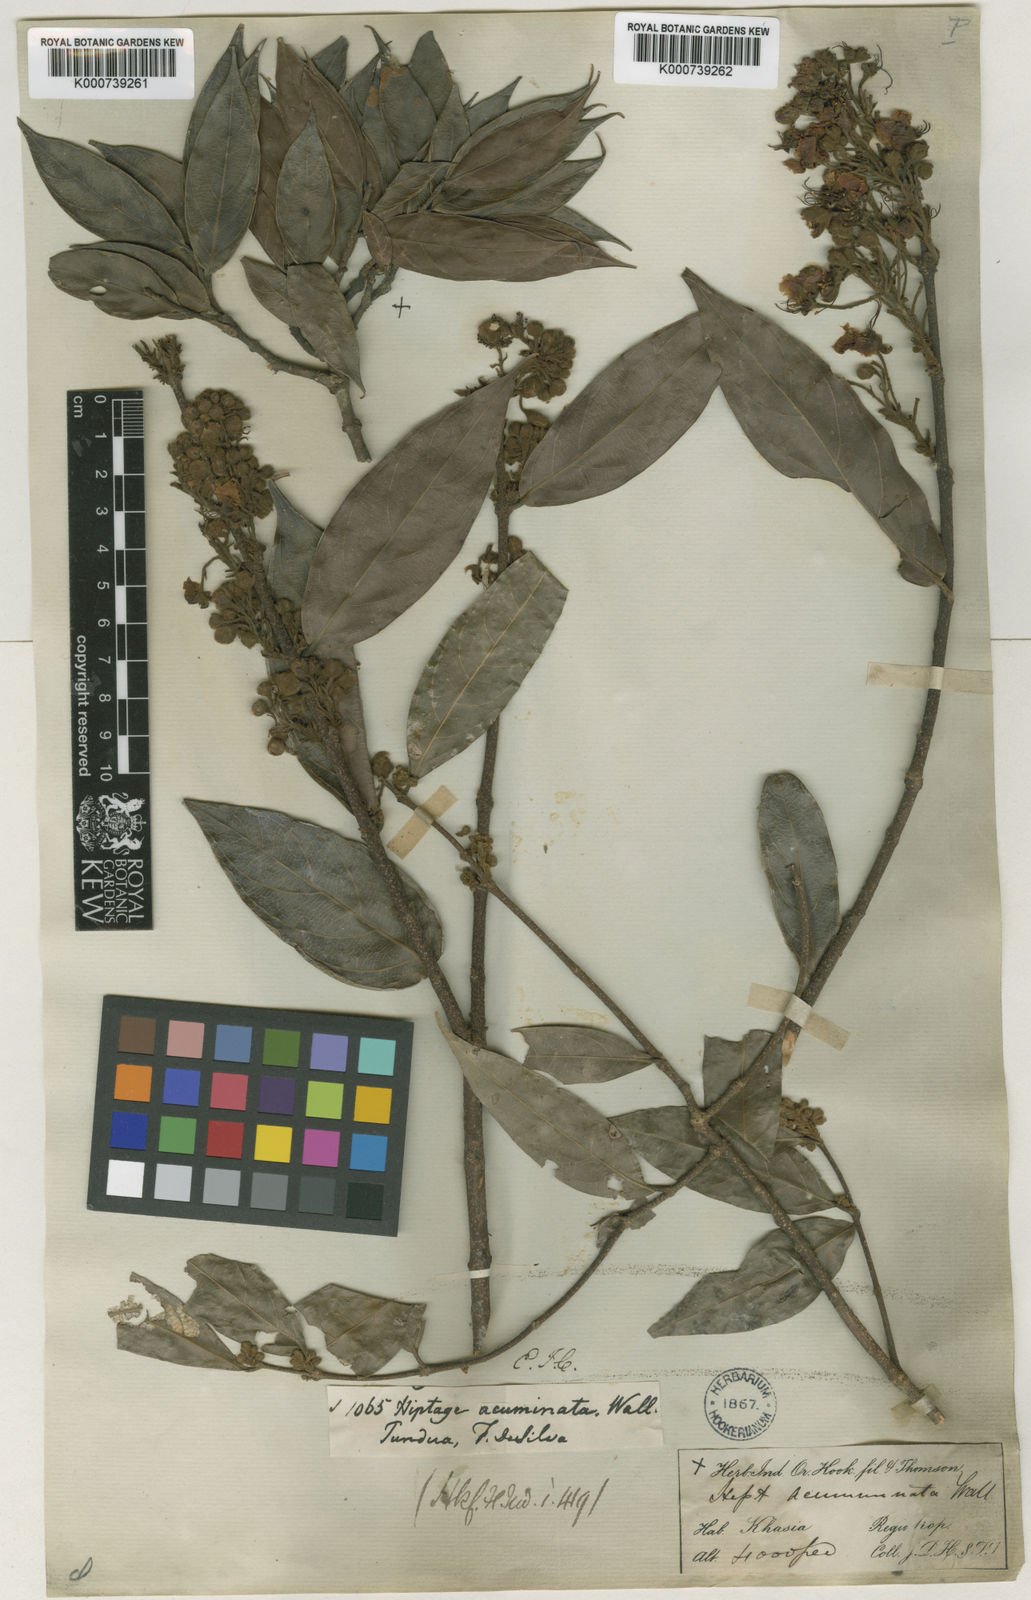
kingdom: Plantae
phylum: Tracheophyta
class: Magnoliopsida
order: Malpighiales
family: Malpighiaceae
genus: Hiptage
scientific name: Hiptage acuminata
